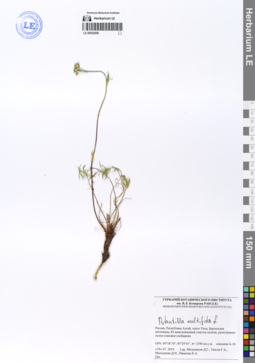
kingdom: Plantae
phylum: Tracheophyta
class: Magnoliopsida
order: Rosales
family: Rosaceae
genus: Potentilla
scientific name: Potentilla multifida
